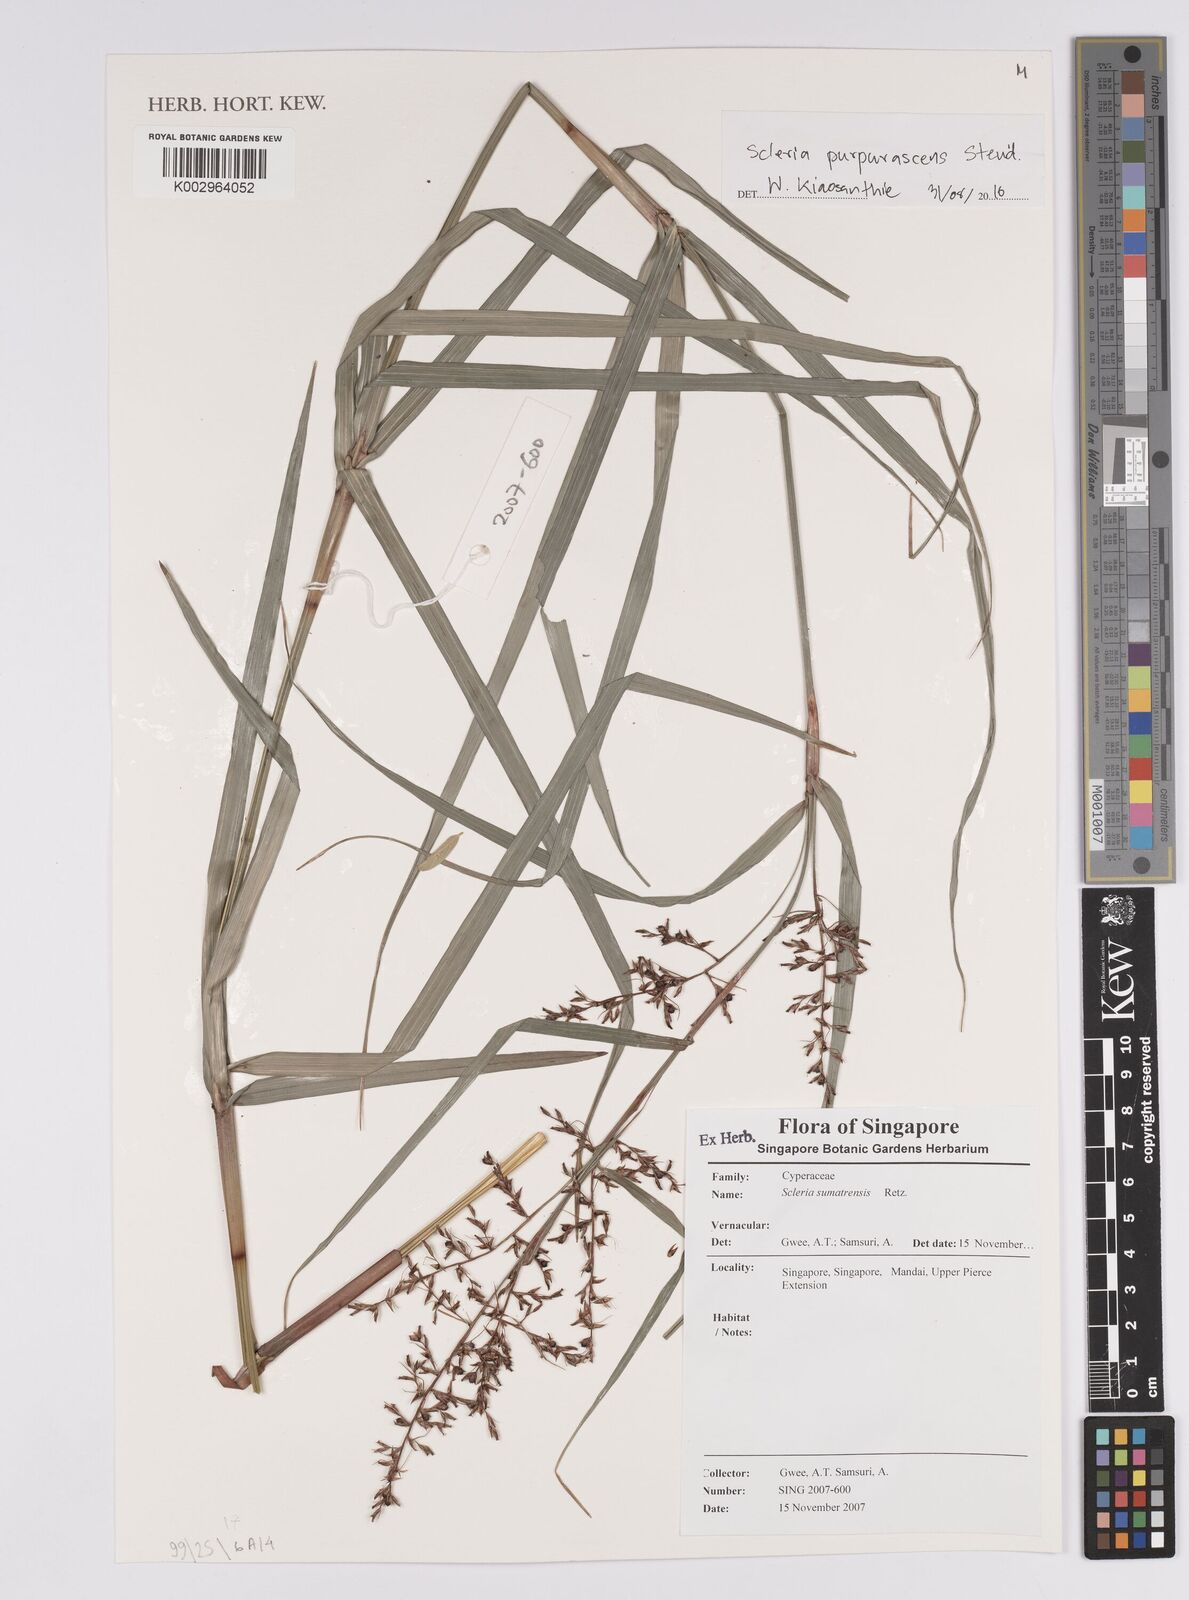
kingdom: Plantae
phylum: Tracheophyta
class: Liliopsida
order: Poales
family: Cyperaceae
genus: Scleria
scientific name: Scleria scrobiculata
